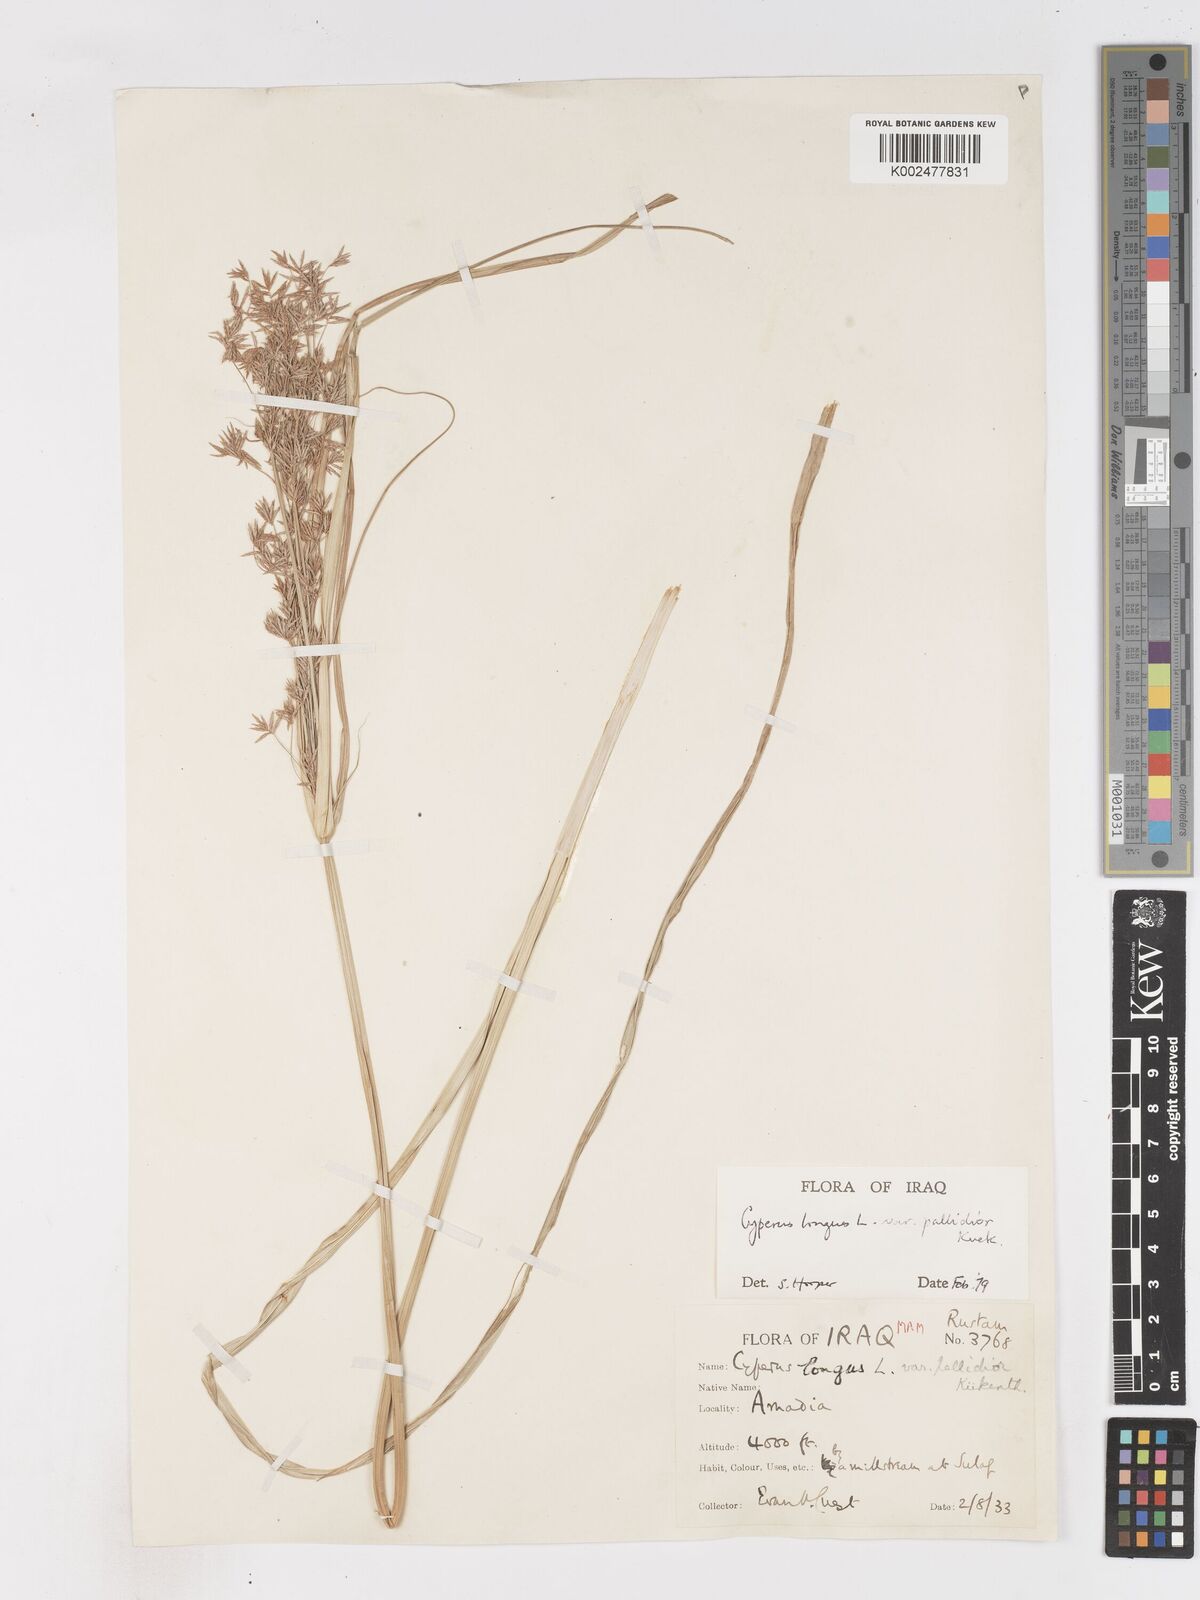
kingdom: Plantae
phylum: Tracheophyta
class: Liliopsida
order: Poales
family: Cyperaceae
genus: Cyperus
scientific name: Cyperus longus
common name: Galingale
